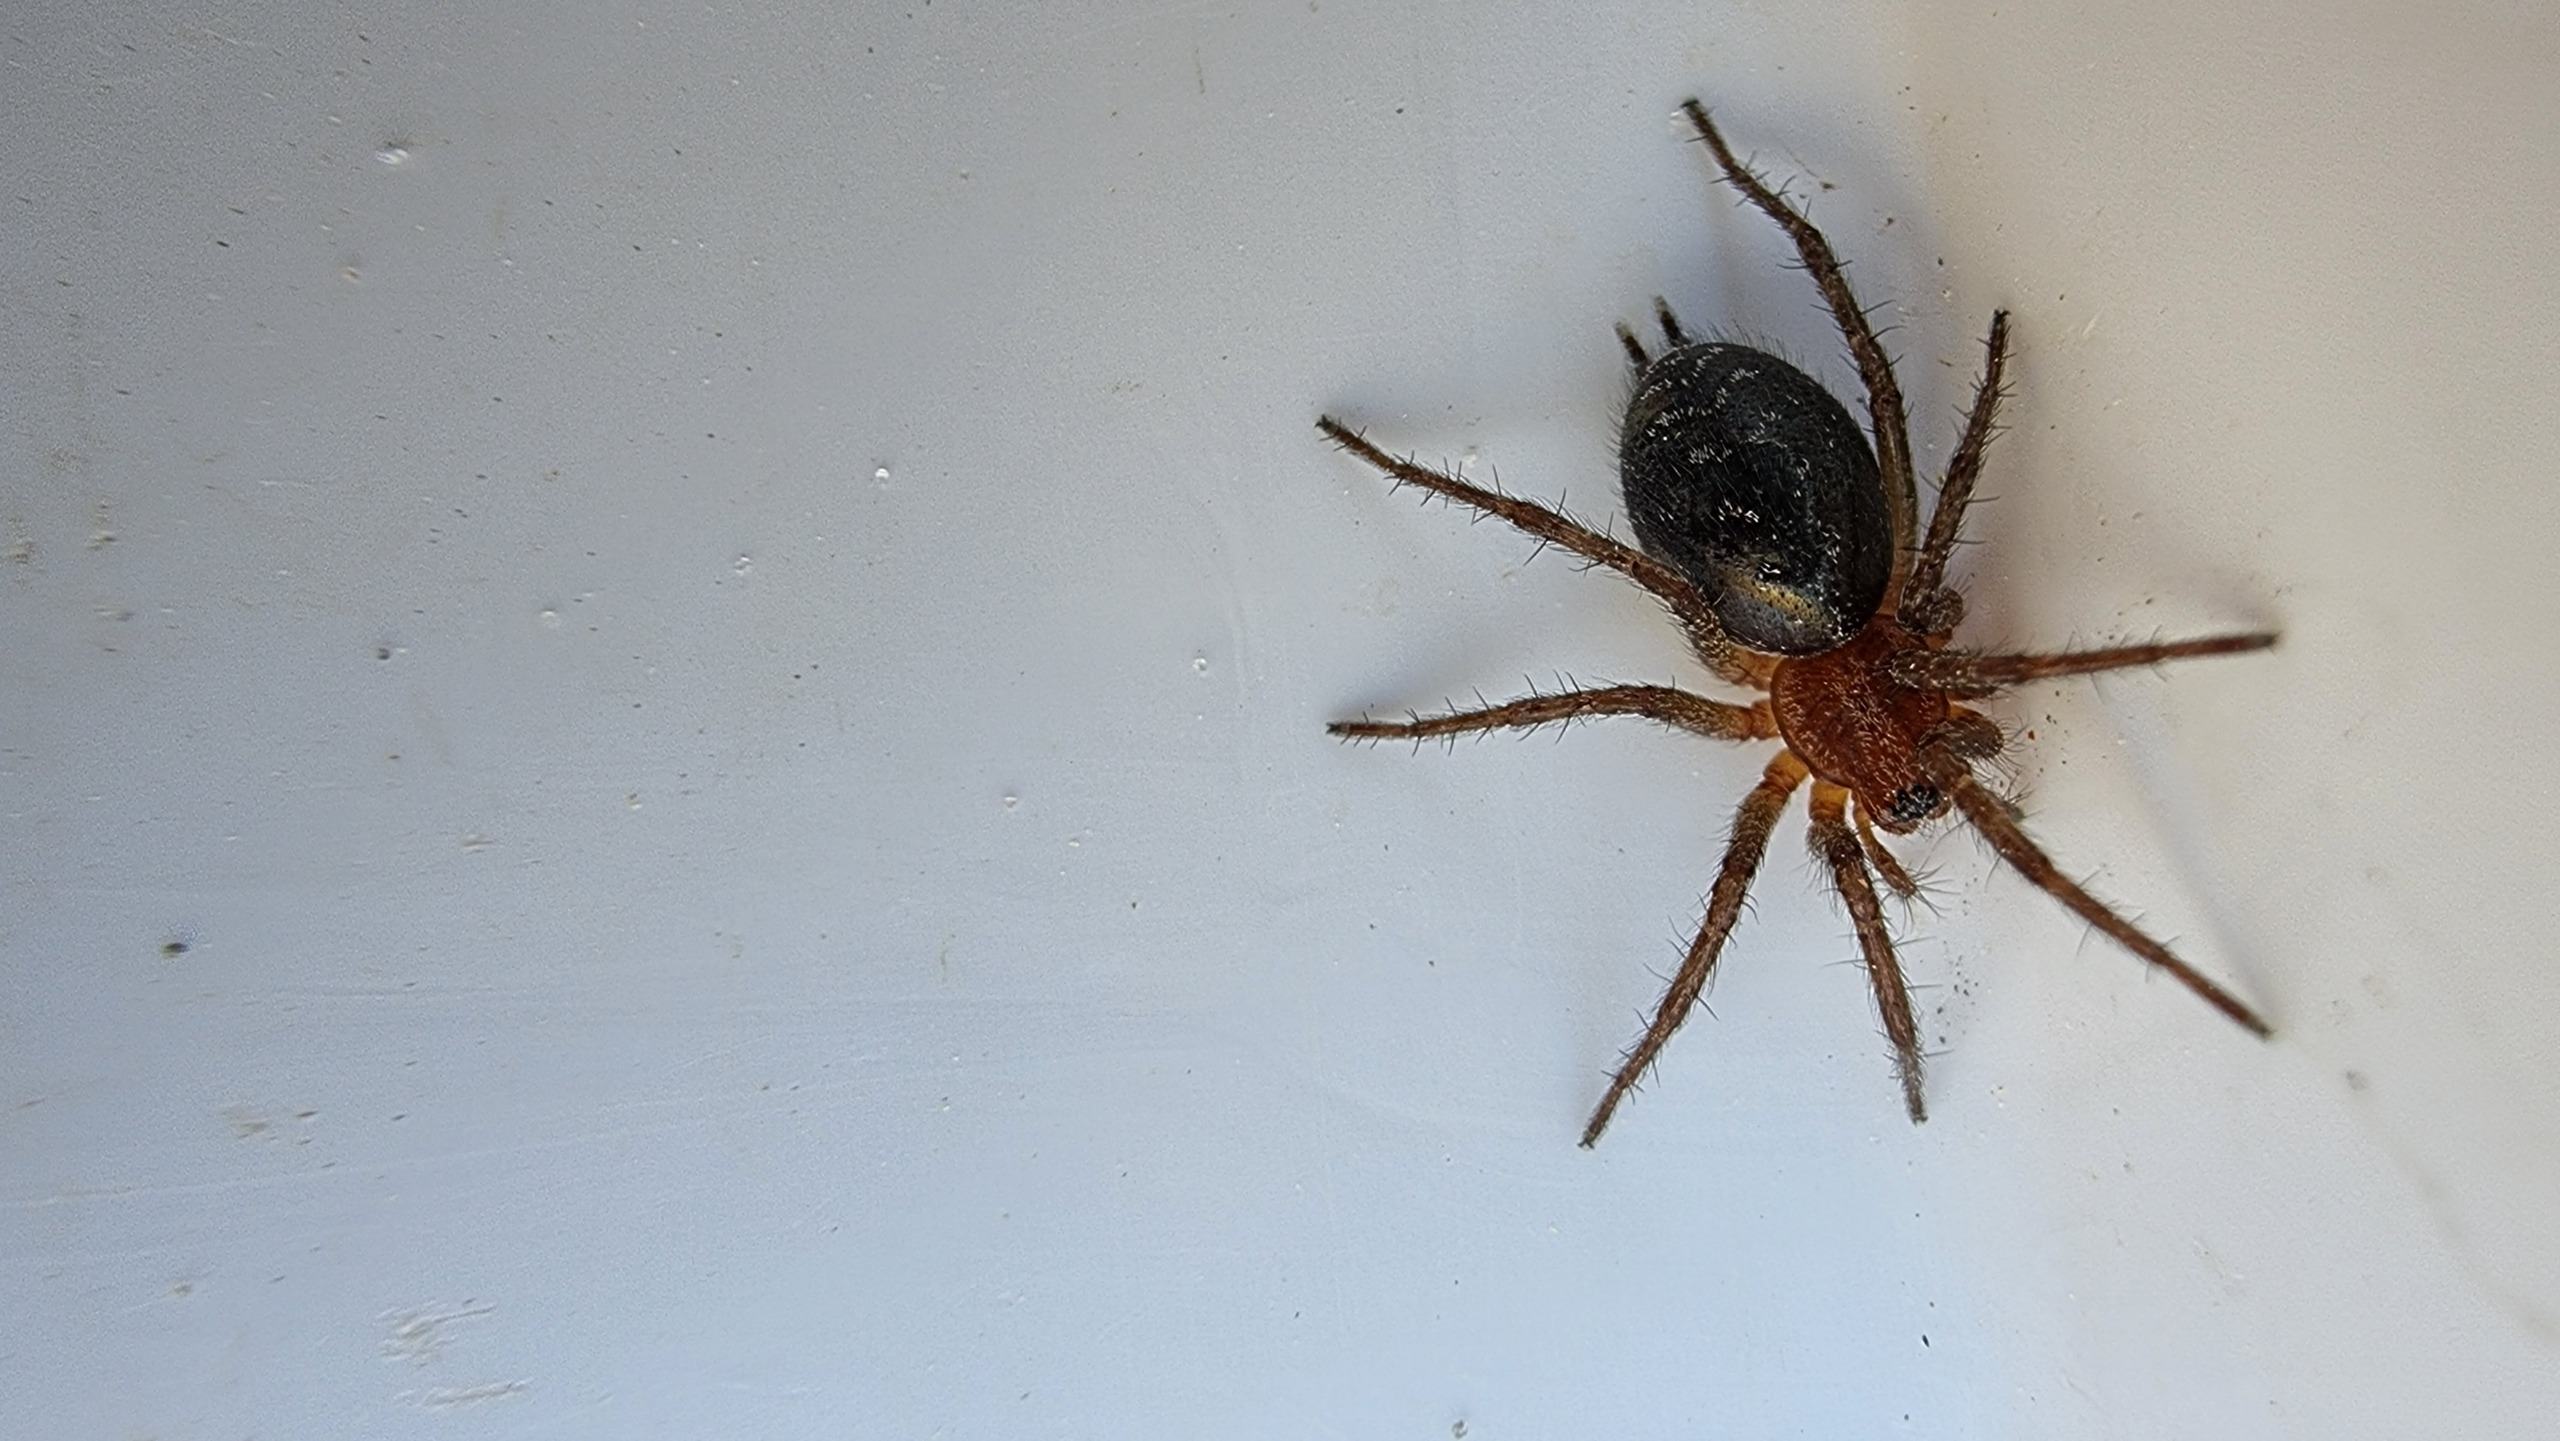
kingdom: Animalia
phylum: Arthropoda
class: Arachnida
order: Araneae
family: Agelenidae
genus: Agelena
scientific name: Agelena labyrinthica
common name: Labyrintedderkop
